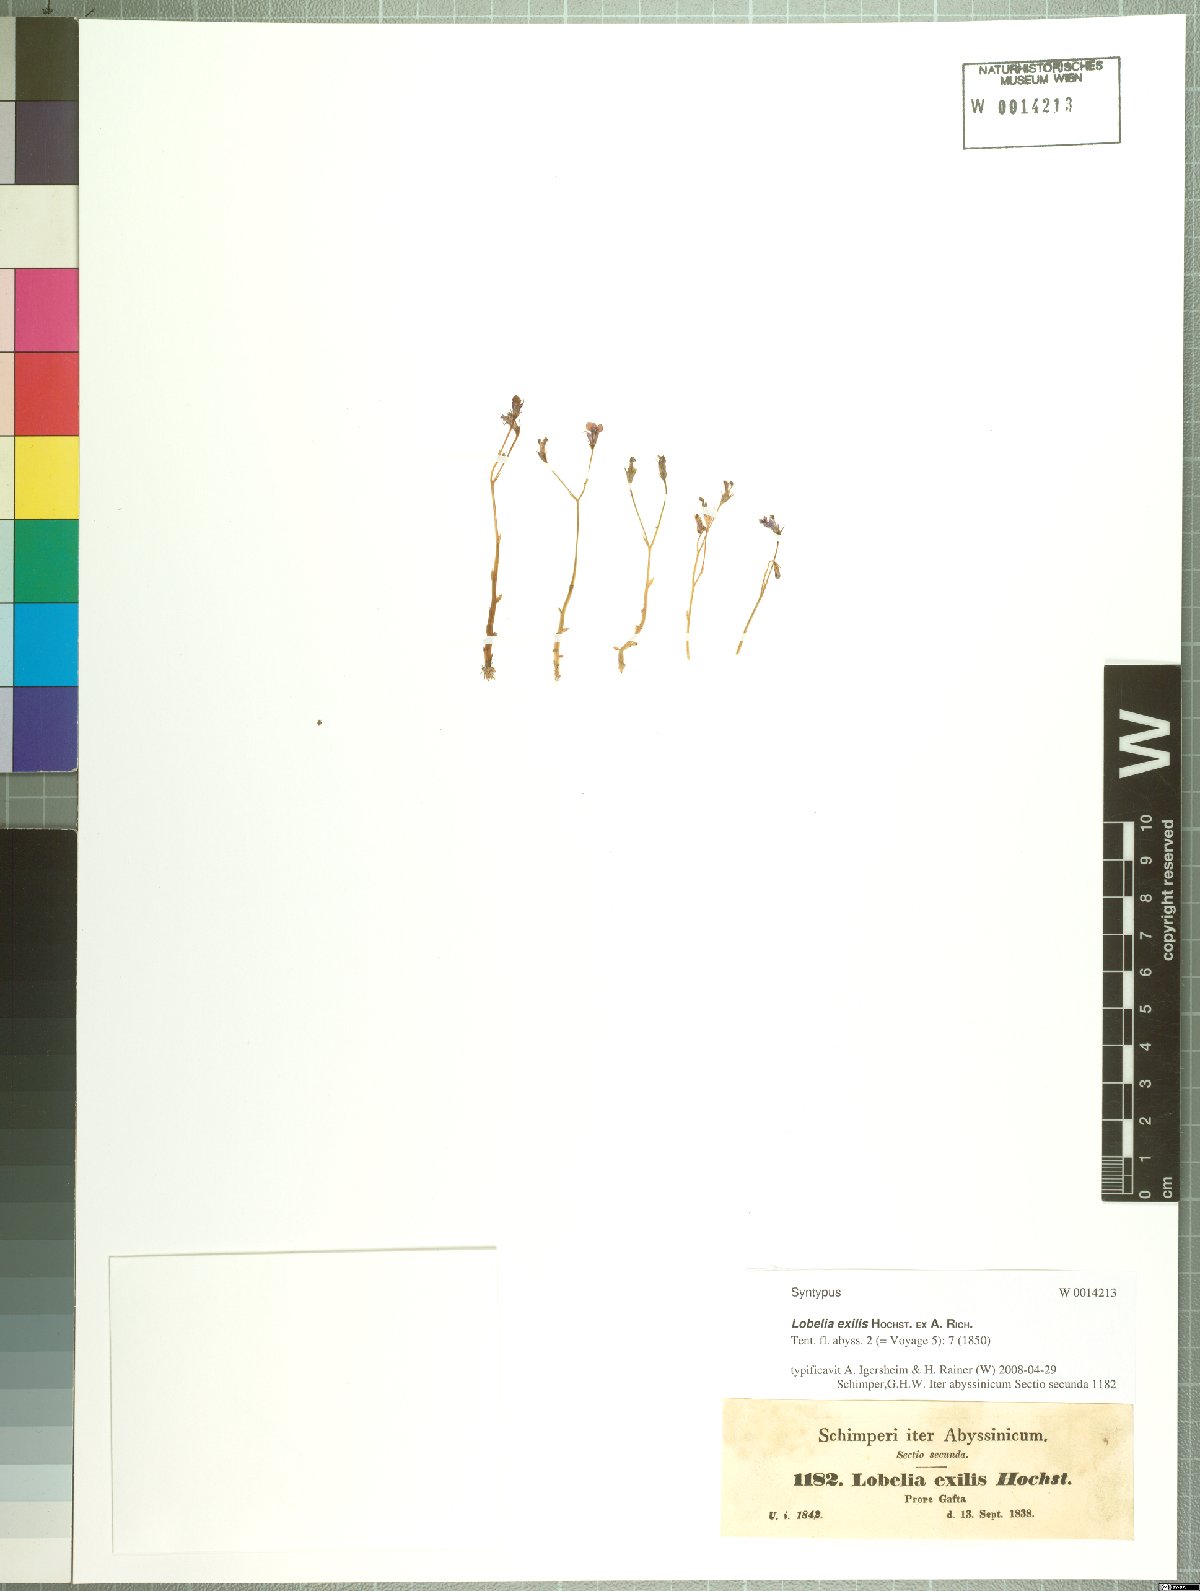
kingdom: Plantae
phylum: Tracheophyta
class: Magnoliopsida
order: Asterales
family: Campanulaceae
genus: Lobelia
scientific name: Lobelia exilis
